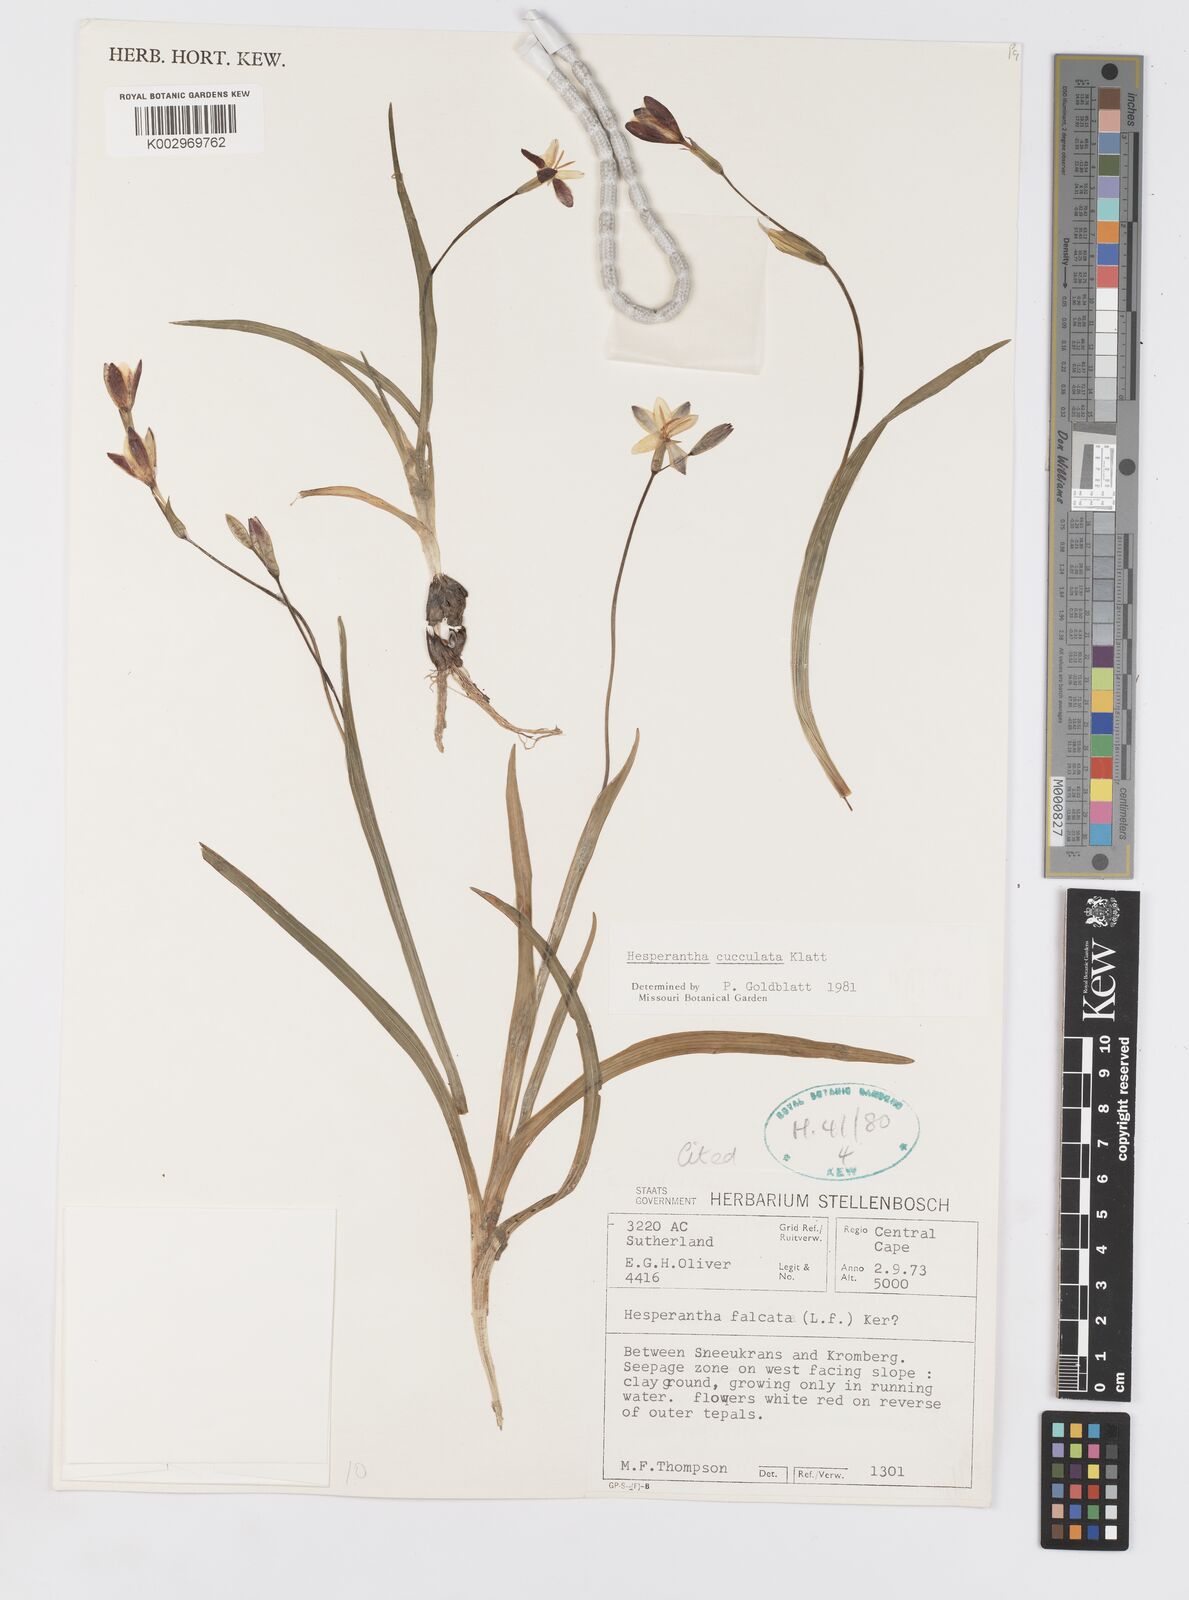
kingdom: Plantae
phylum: Tracheophyta
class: Liliopsida
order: Asparagales
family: Iridaceae
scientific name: Iridaceae
